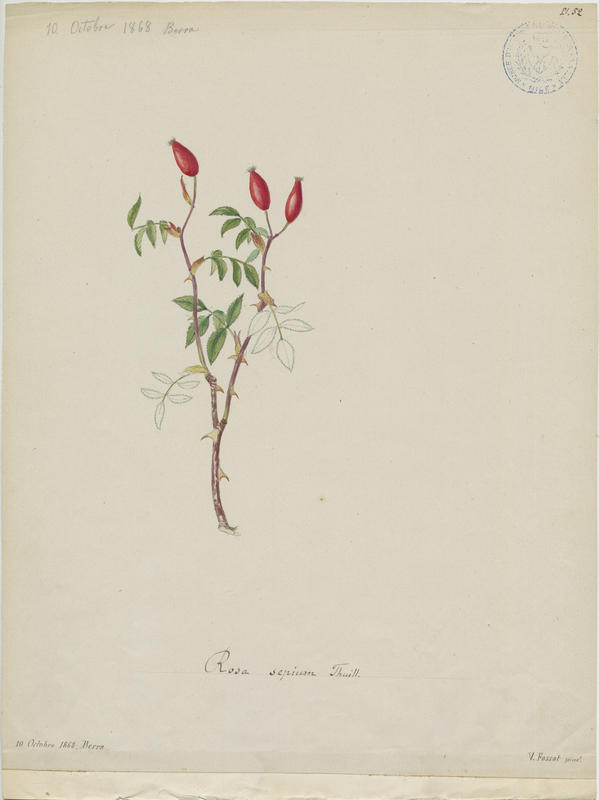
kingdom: Plantae
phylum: Tracheophyta
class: Magnoliopsida
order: Rosales
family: Rosaceae
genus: Rosa
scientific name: Rosa agrestis
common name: Fieldbriar
